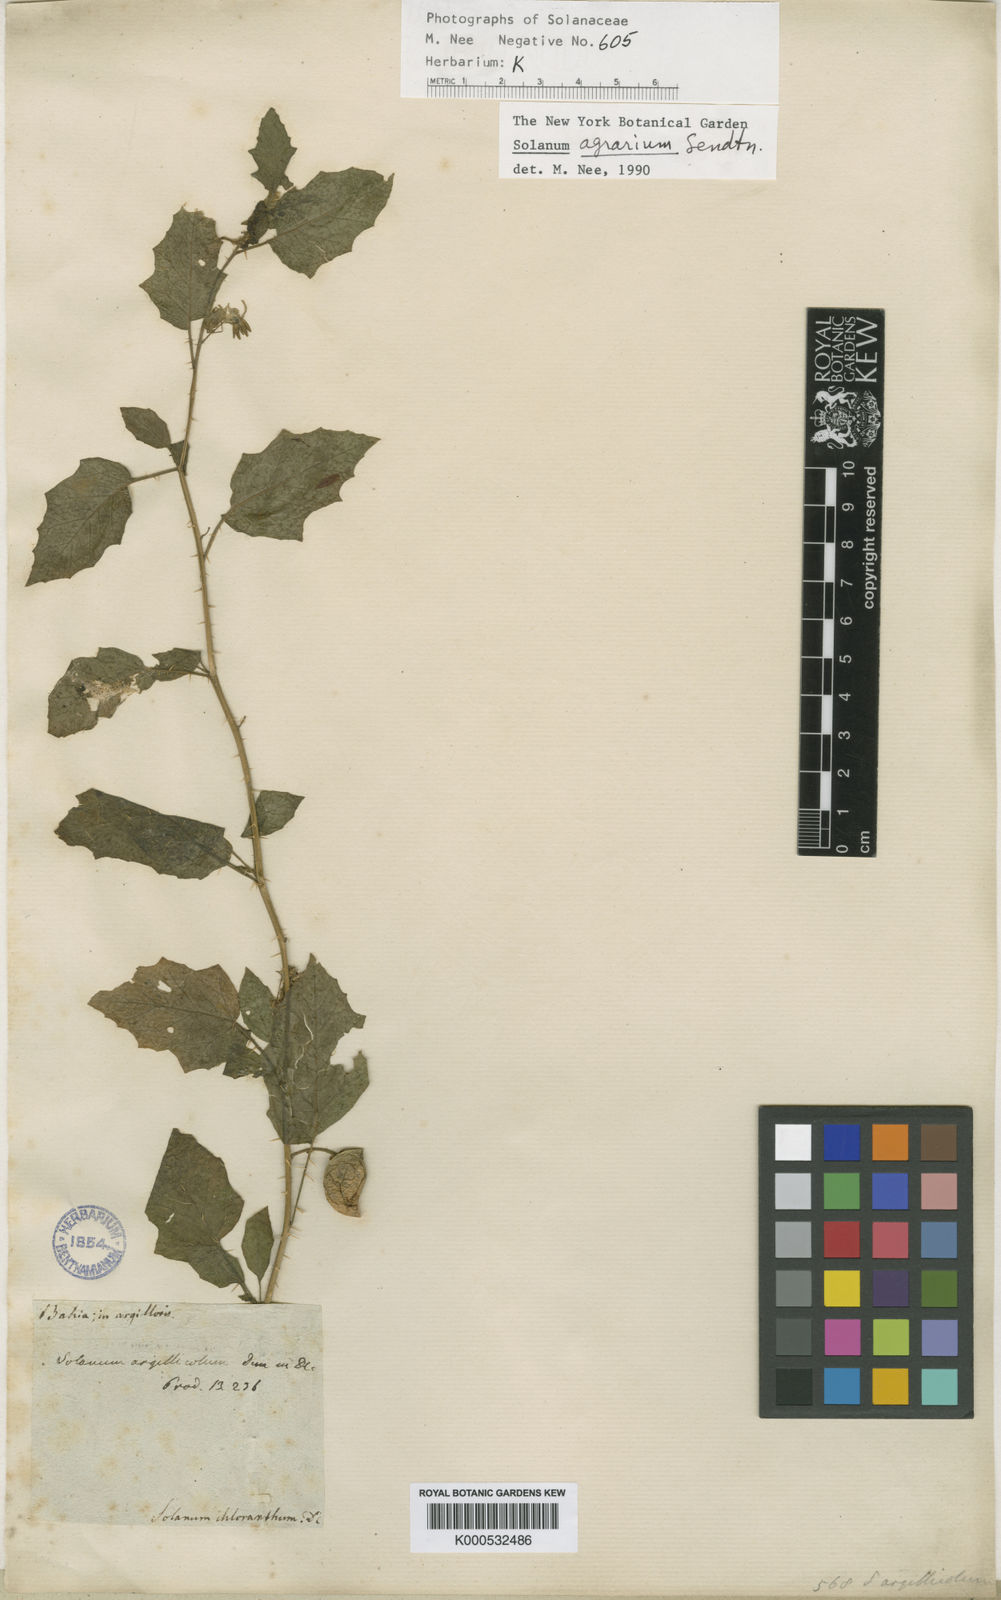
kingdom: Plantae
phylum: Tracheophyta
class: Magnoliopsida
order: Solanales
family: Solanaceae
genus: Solanum
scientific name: Solanum agrarium
